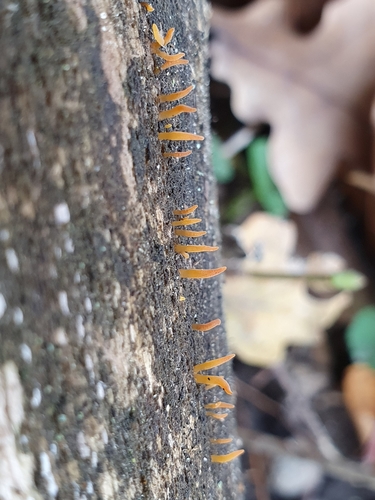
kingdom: Fungi
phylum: Basidiomycota
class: Dacrymycetes
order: Dacrymycetales
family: Dacrymycetaceae
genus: Calocera
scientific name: Calocera cornea
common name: Small stagshorn
